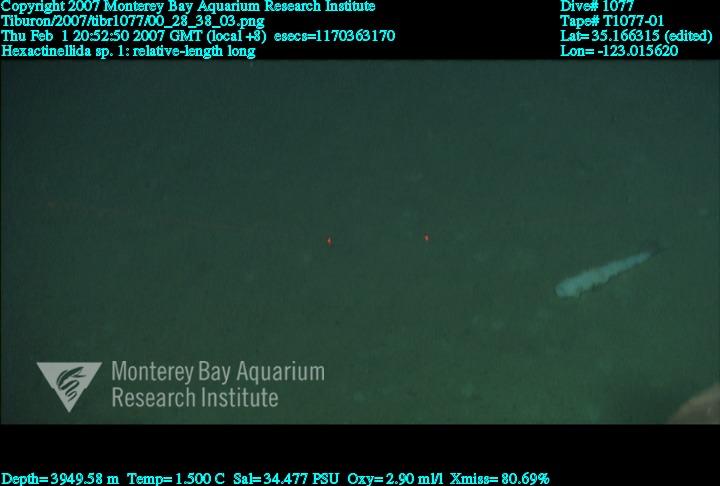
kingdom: Animalia
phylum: Porifera
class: Hexactinellida
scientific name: Hexactinellida
